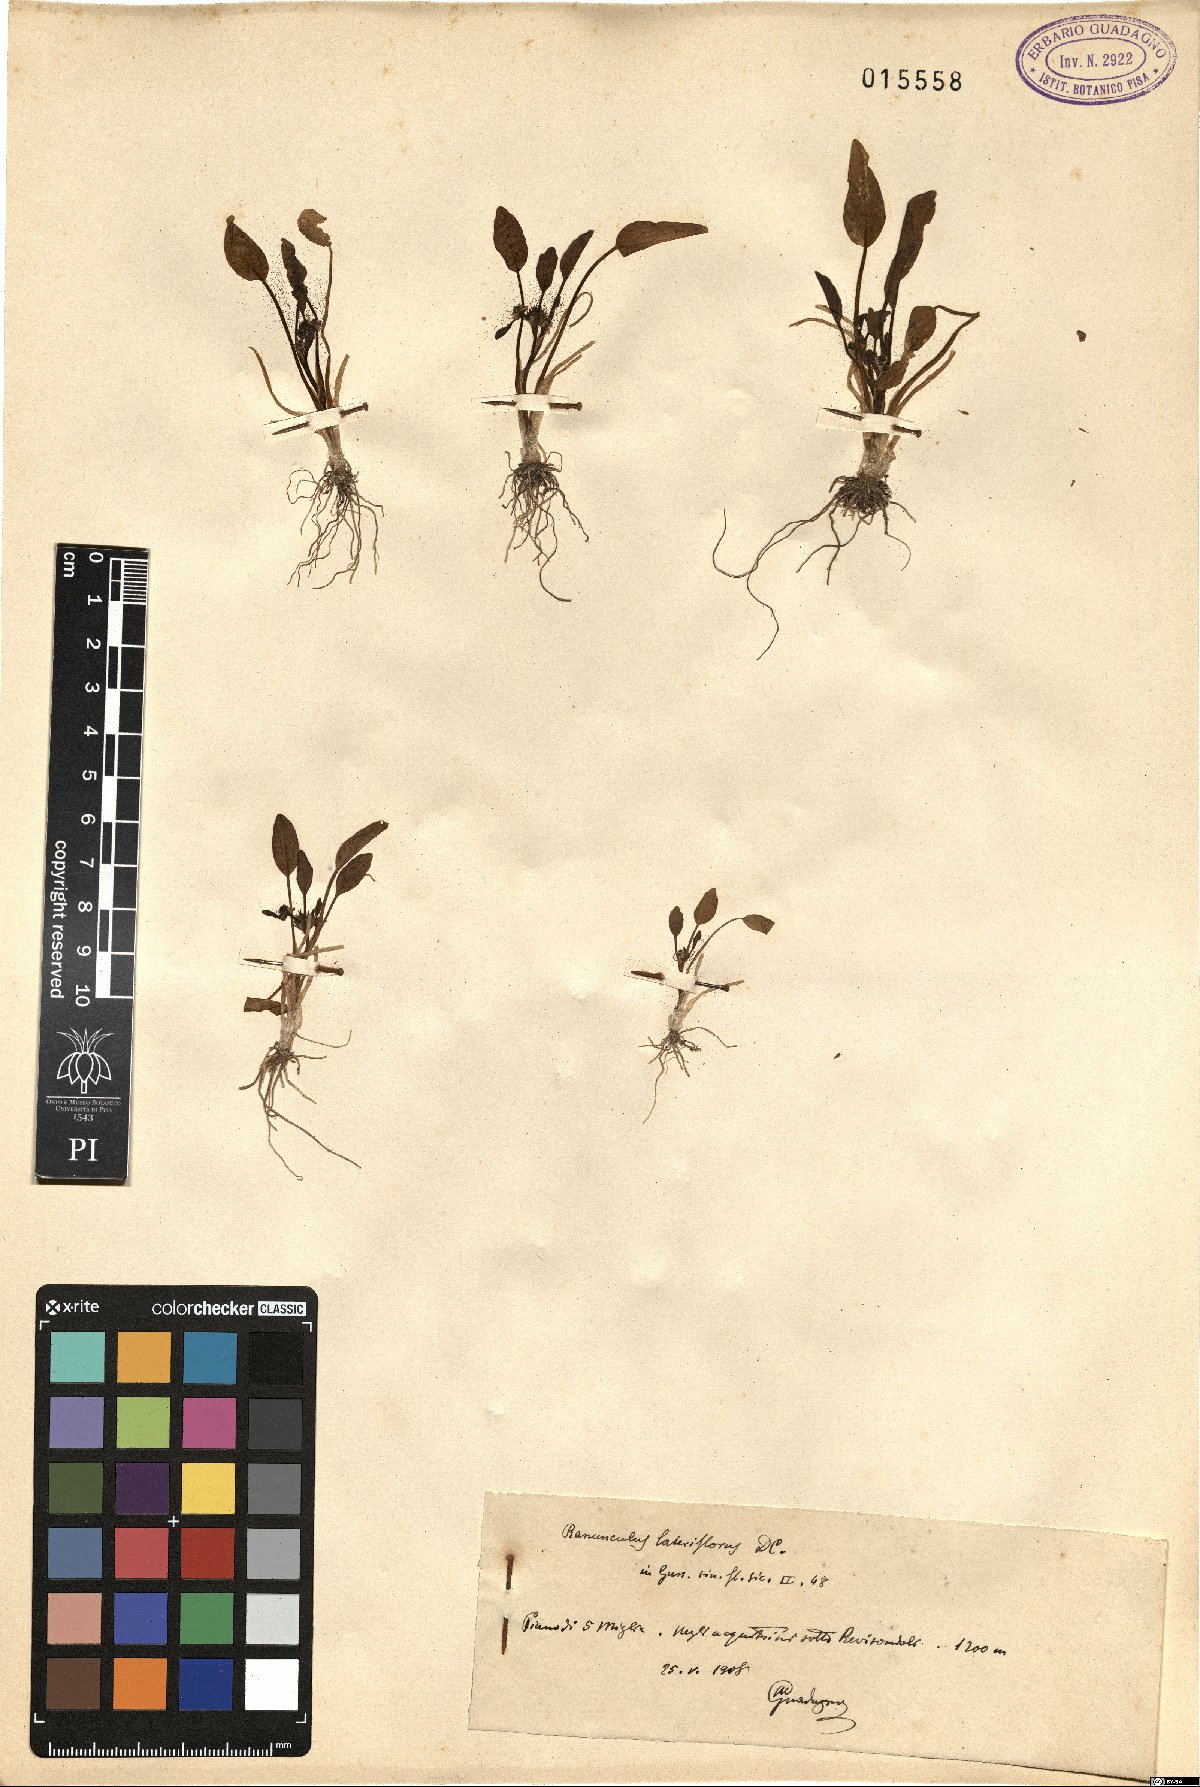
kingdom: Plantae
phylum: Tracheophyta
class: Magnoliopsida
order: Ranunculales
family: Ranunculaceae
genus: Ranunculus
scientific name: Ranunculus lateriflorus
